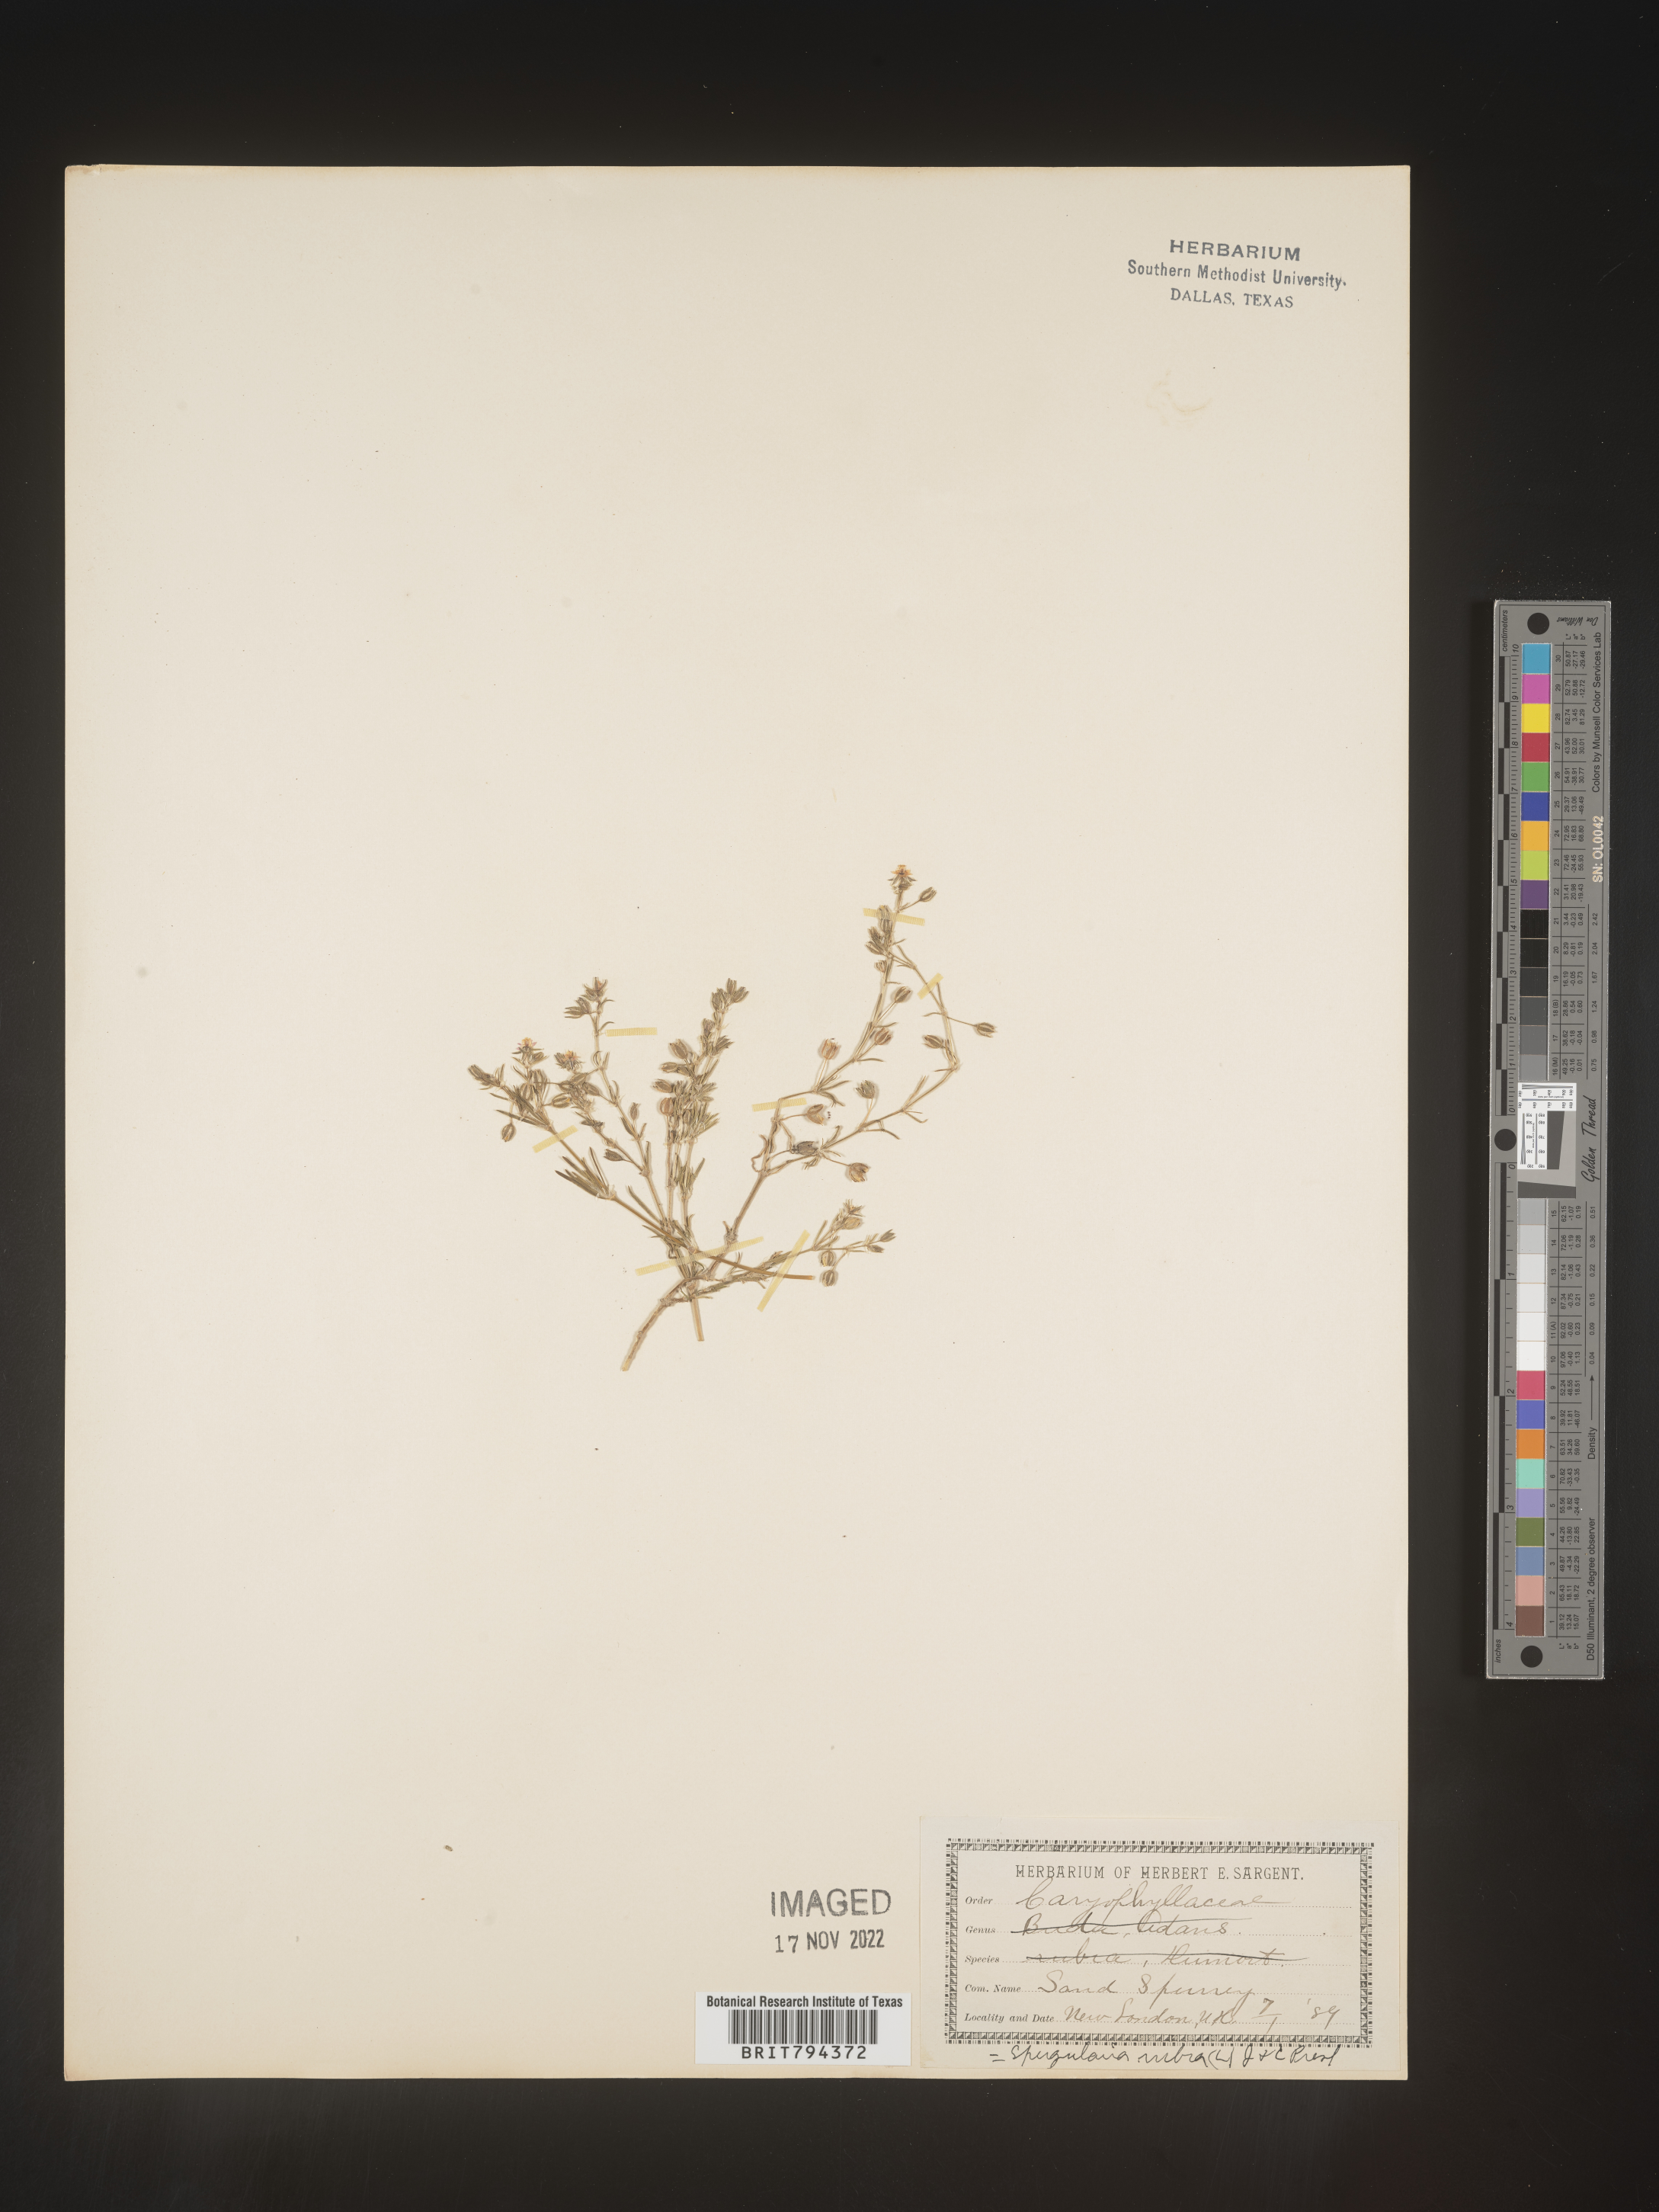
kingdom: Plantae
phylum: Tracheophyta
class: Magnoliopsida
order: Caryophyllales
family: Caryophyllaceae
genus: Spergularia
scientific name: Spergularia rubra
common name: Red sand-spurrey
